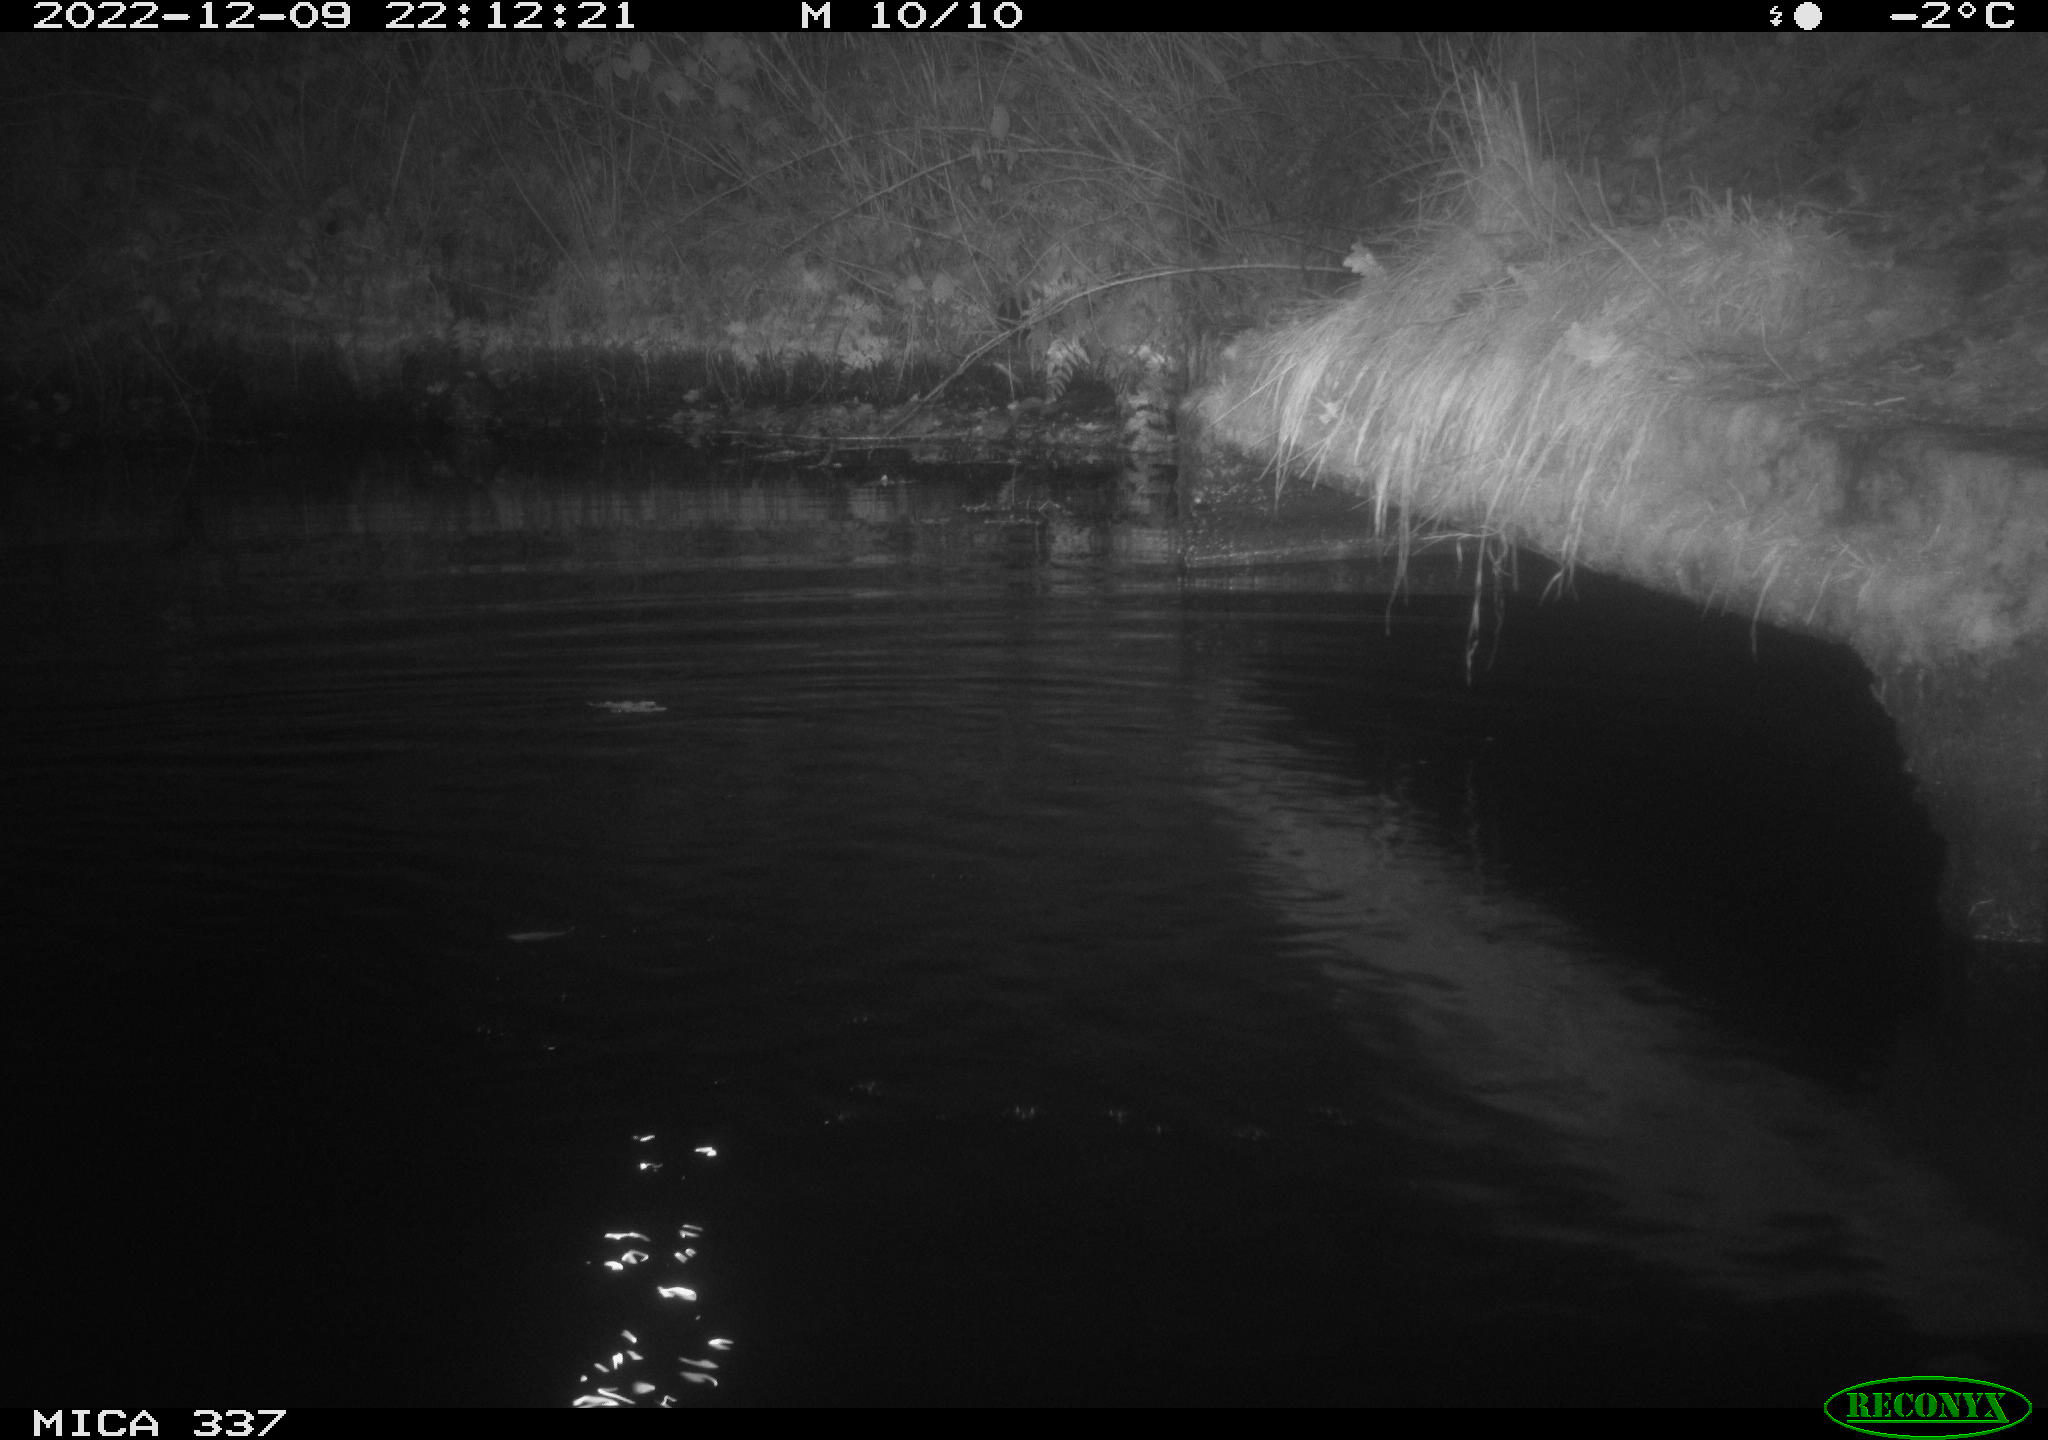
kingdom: Animalia
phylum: Chordata
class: Aves
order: Anseriformes
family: Anatidae
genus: Anas
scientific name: Anas
